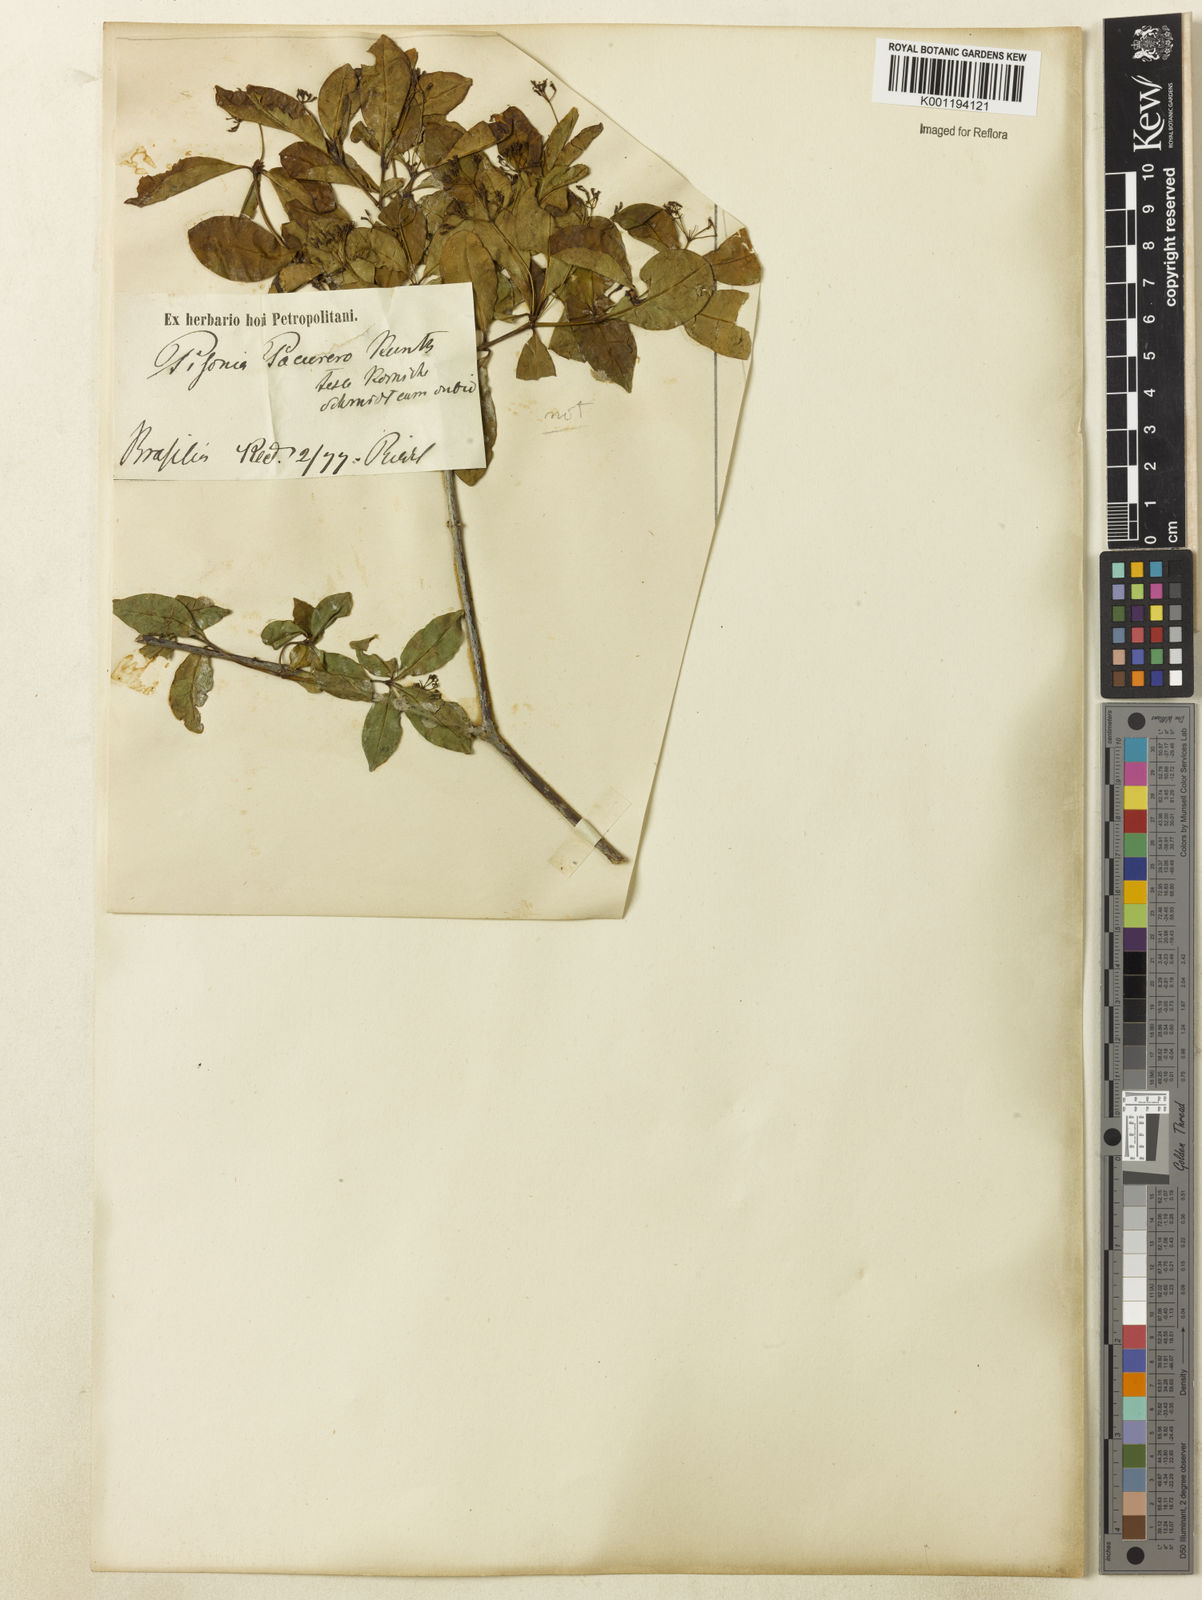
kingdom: Plantae
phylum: Tracheophyta
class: Magnoliopsida
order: Caryophyllales
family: Nyctaginaceae
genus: Guapira
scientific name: Guapira
